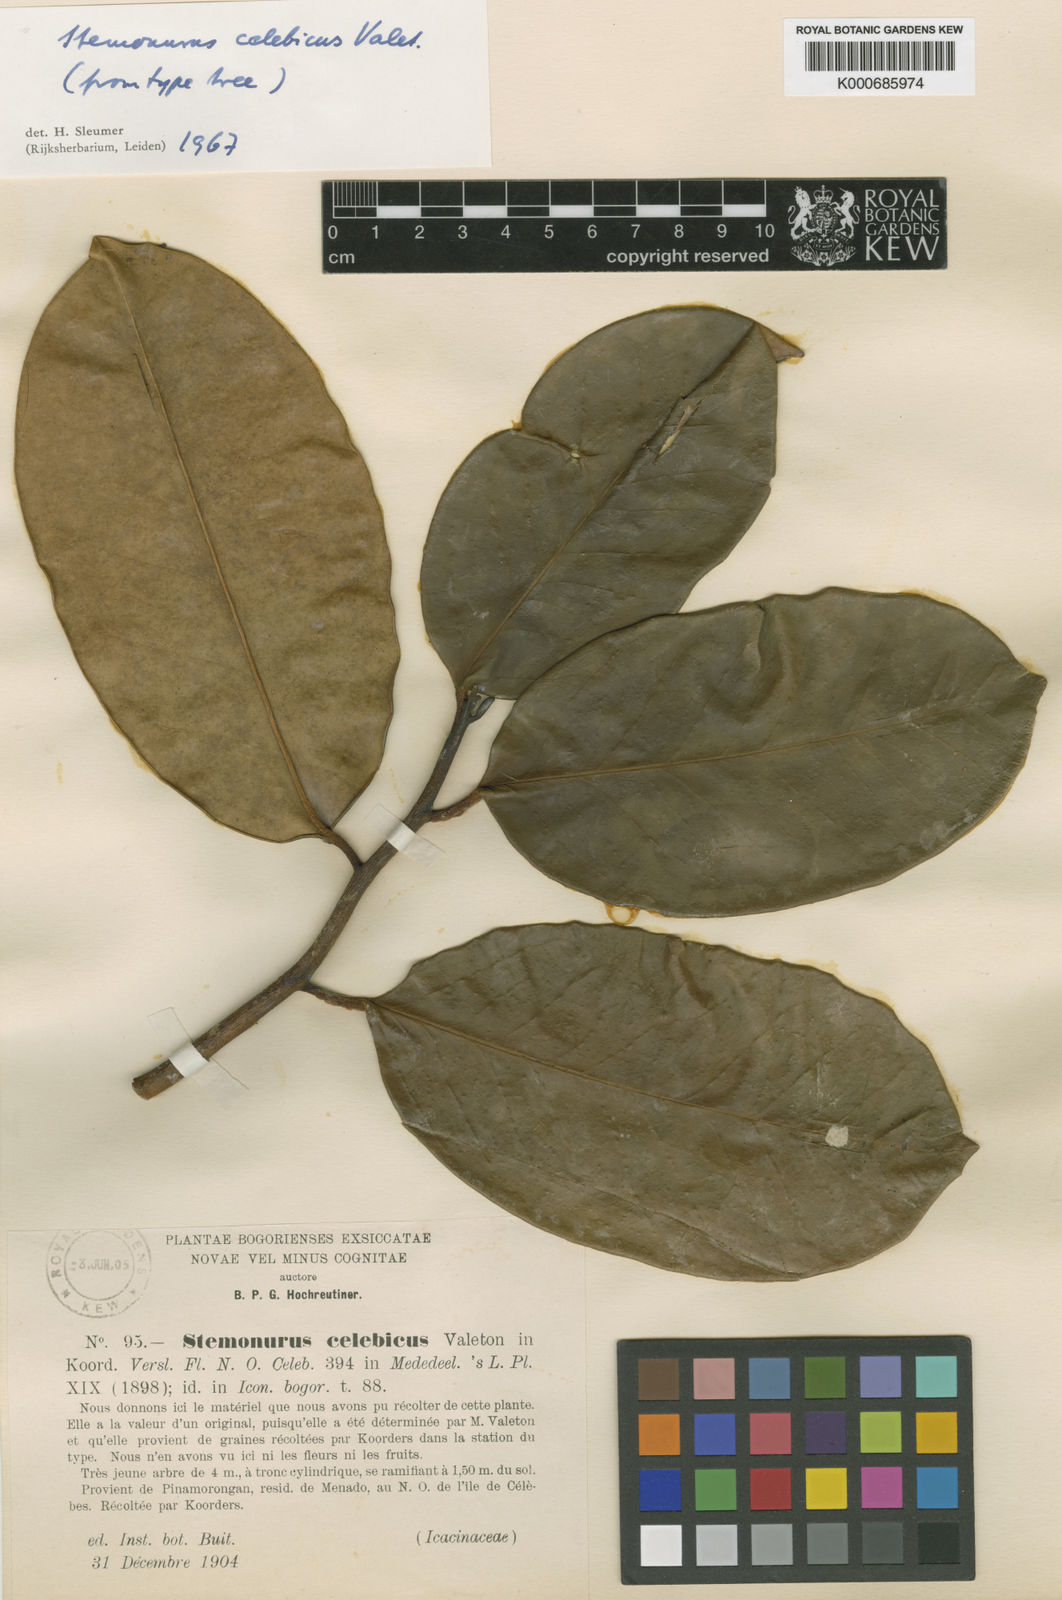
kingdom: Plantae
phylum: Tracheophyta
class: Magnoliopsida
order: Cardiopteridales
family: Stemonuraceae
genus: Stemonurus
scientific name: Stemonurus
